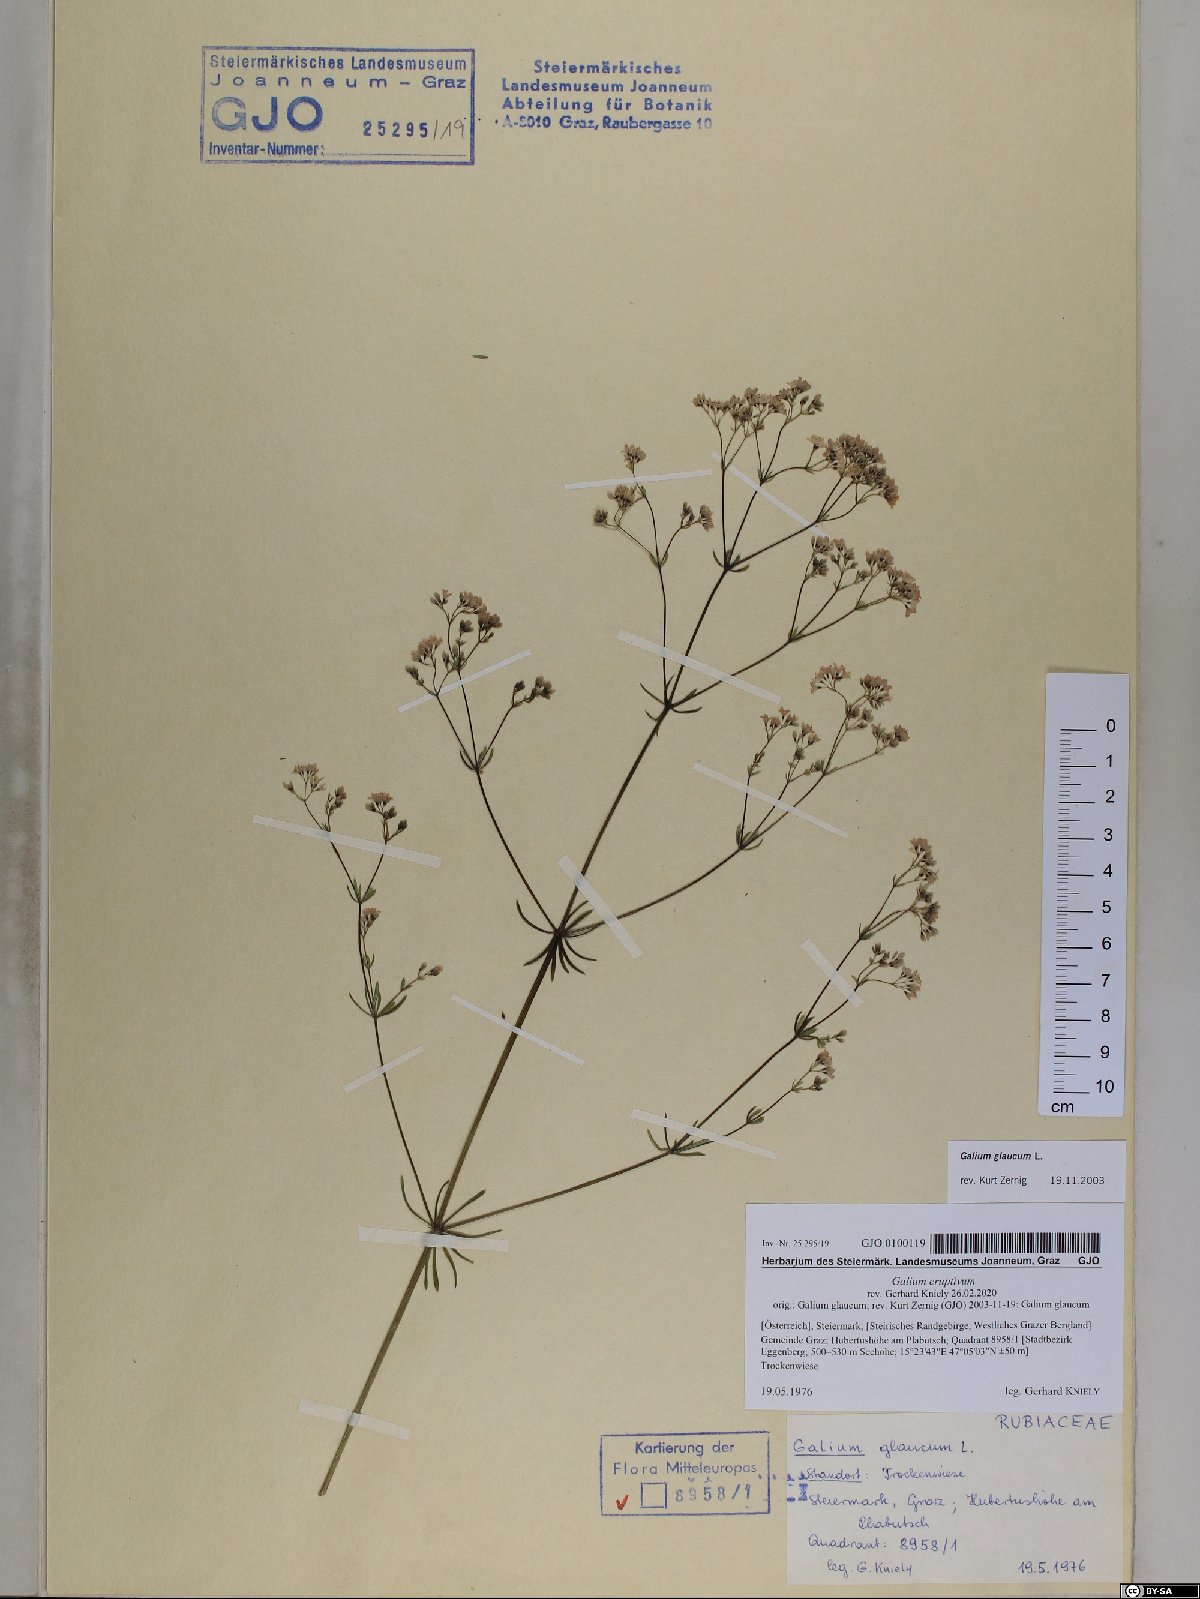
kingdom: Plantae
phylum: Tracheophyta
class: Magnoliopsida
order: Gentianales
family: Rubiaceae
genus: Galium
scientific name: Galium eruptivum
